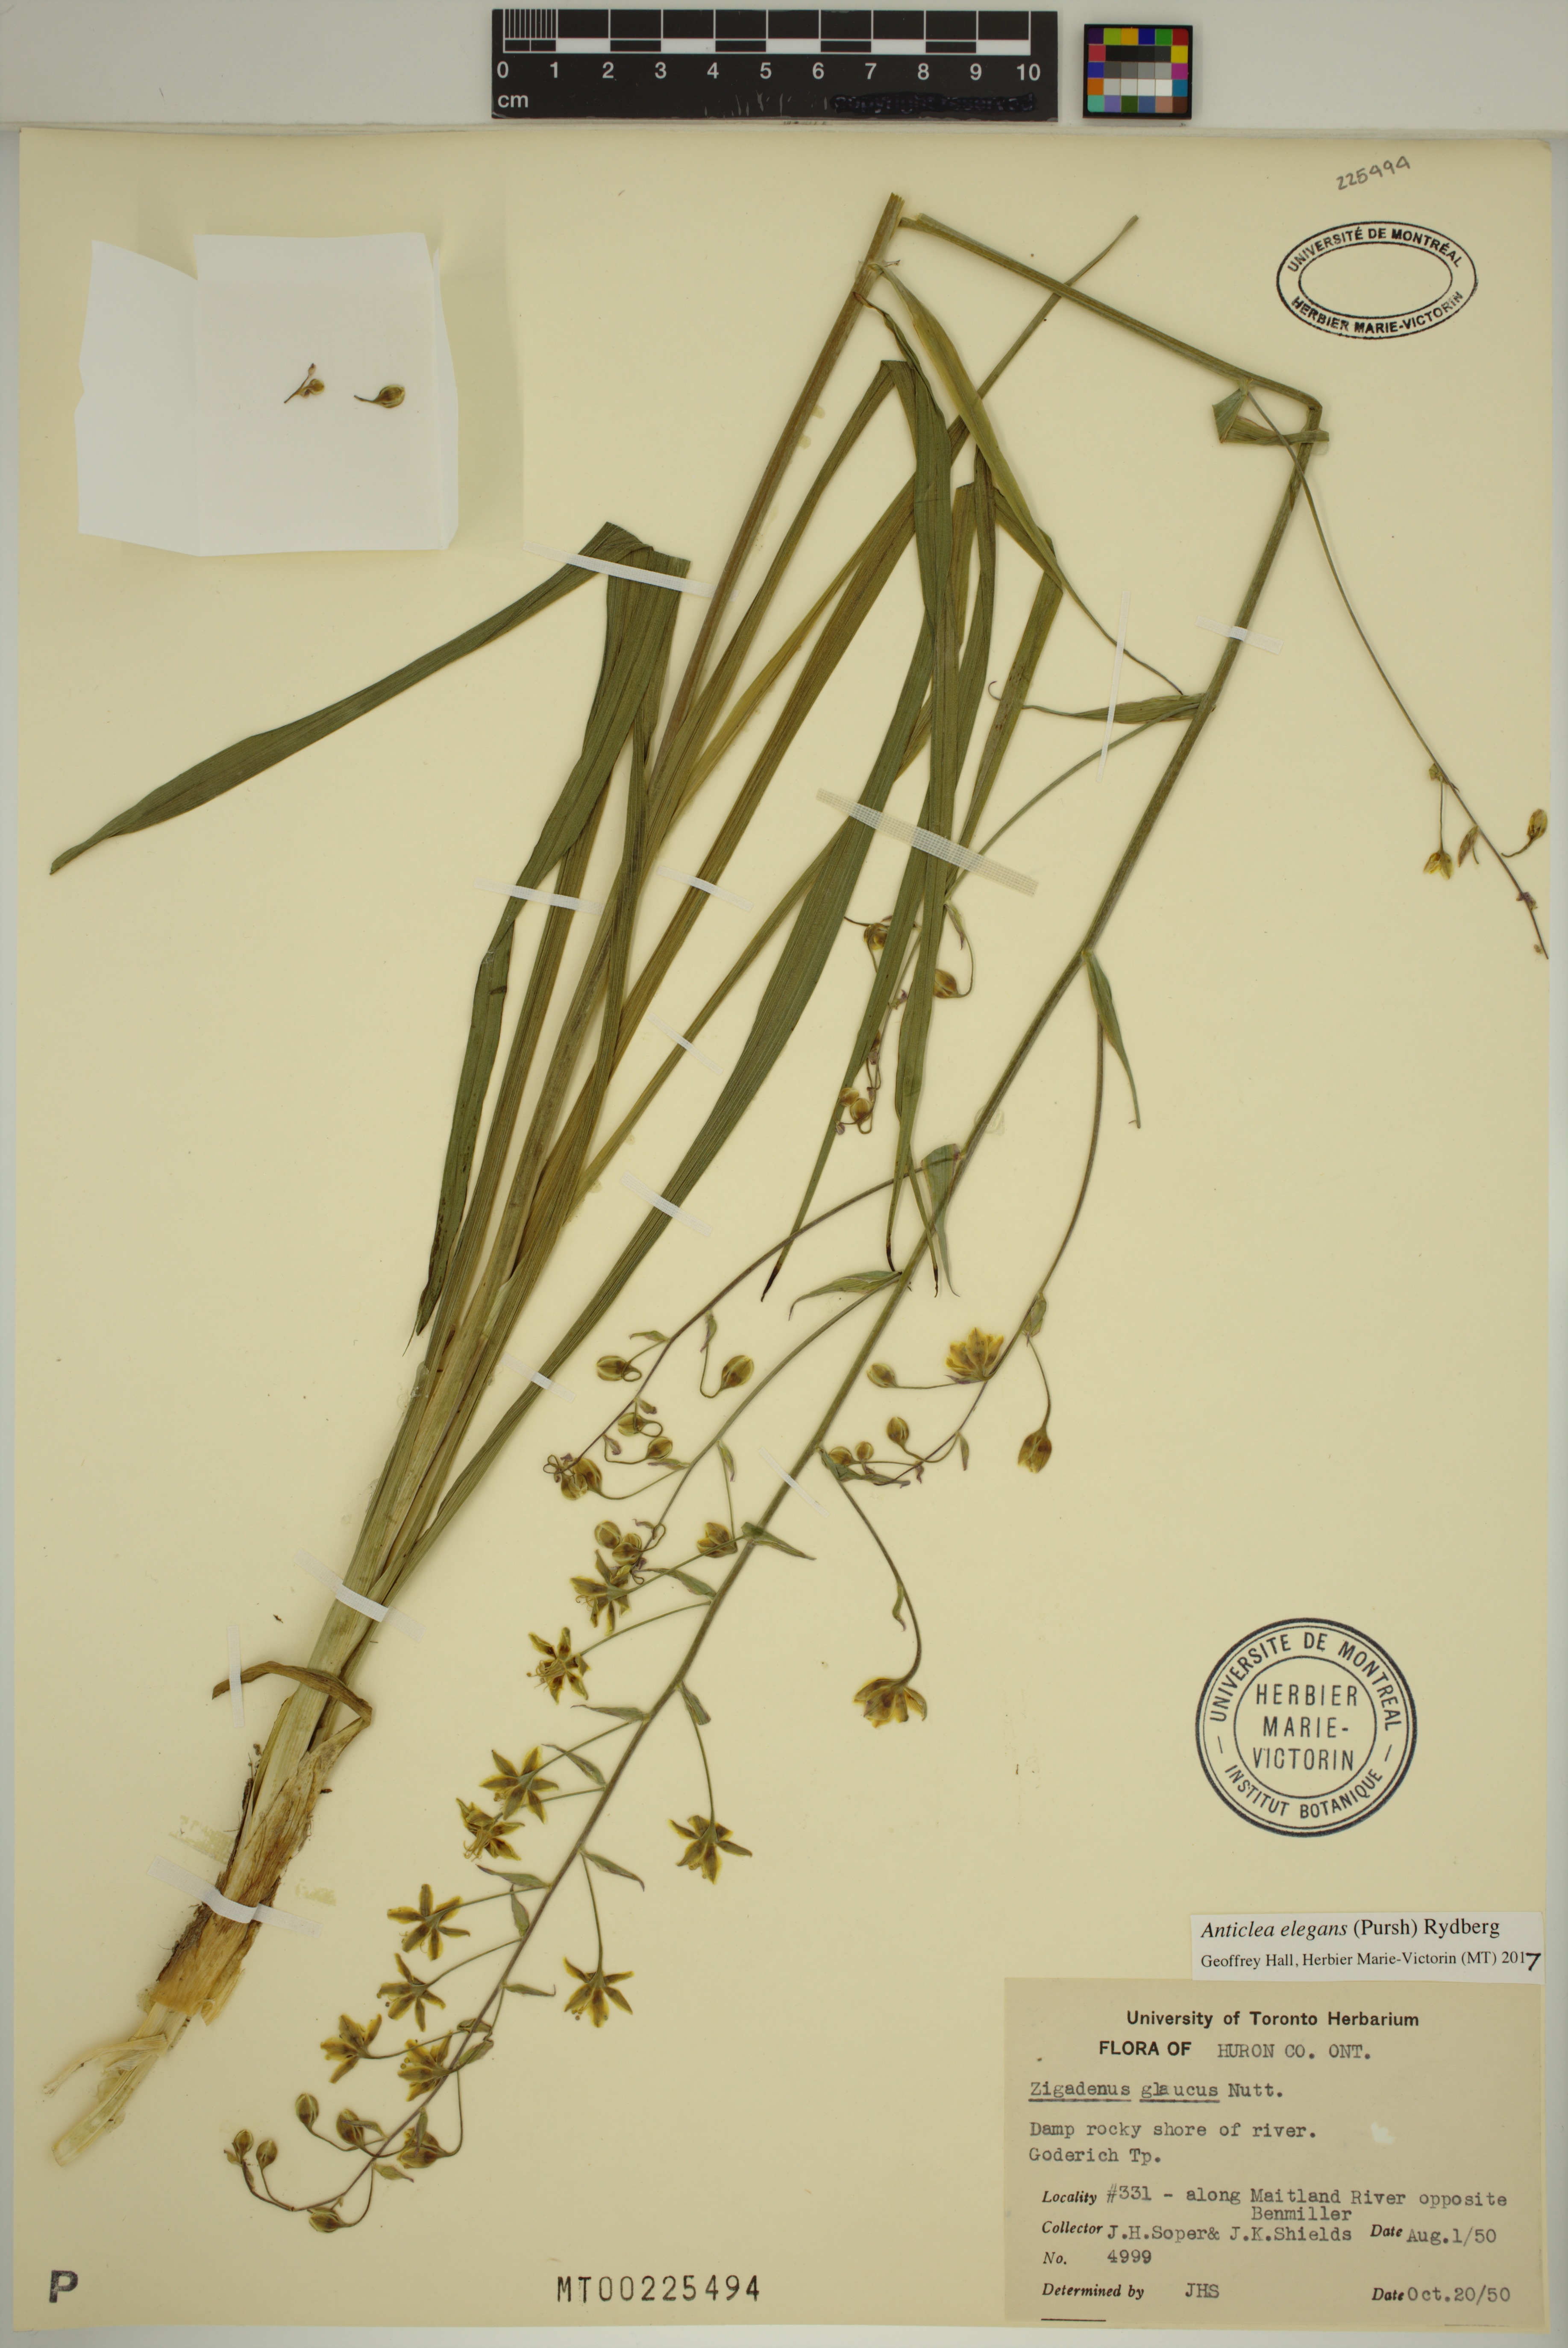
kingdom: Plantae
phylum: Tracheophyta
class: Liliopsida
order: Liliales
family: Melanthiaceae
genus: Anticlea
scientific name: Anticlea elegans
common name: Mountain death camas
